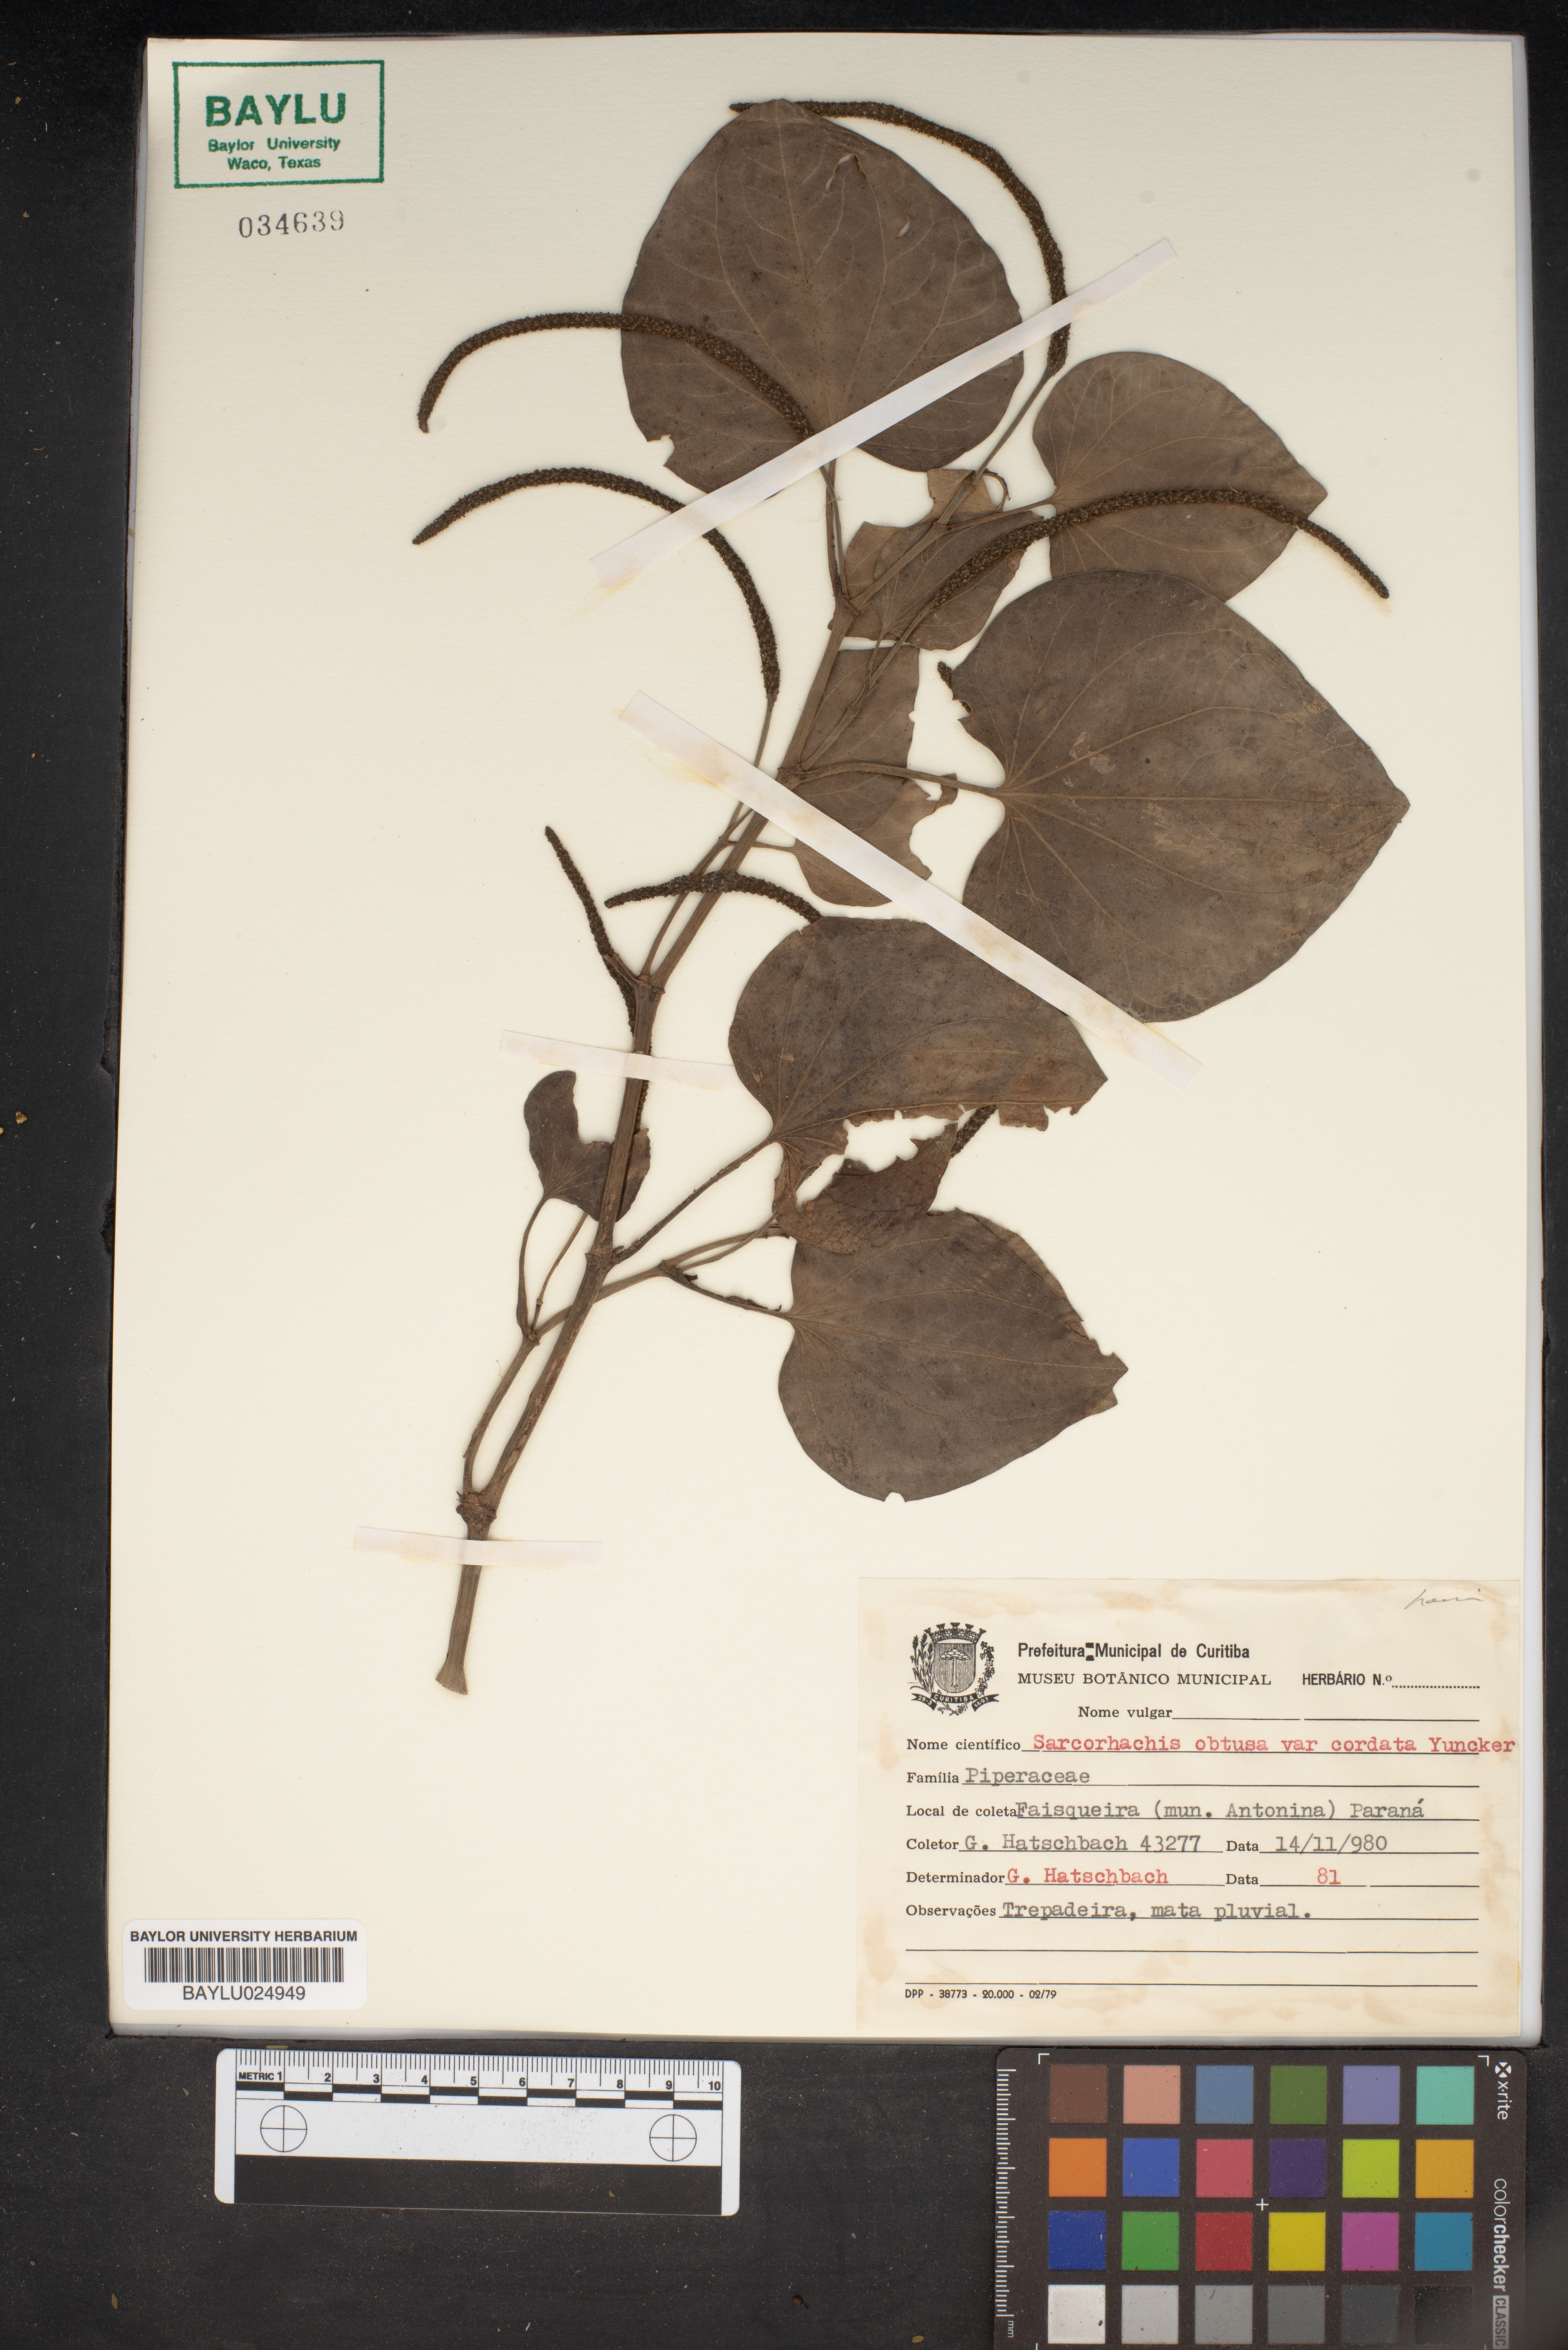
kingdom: Plantae
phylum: Tracheophyta
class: Magnoliopsida
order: Piperales
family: Piperaceae
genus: Manekia
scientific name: Manekia obtusa
